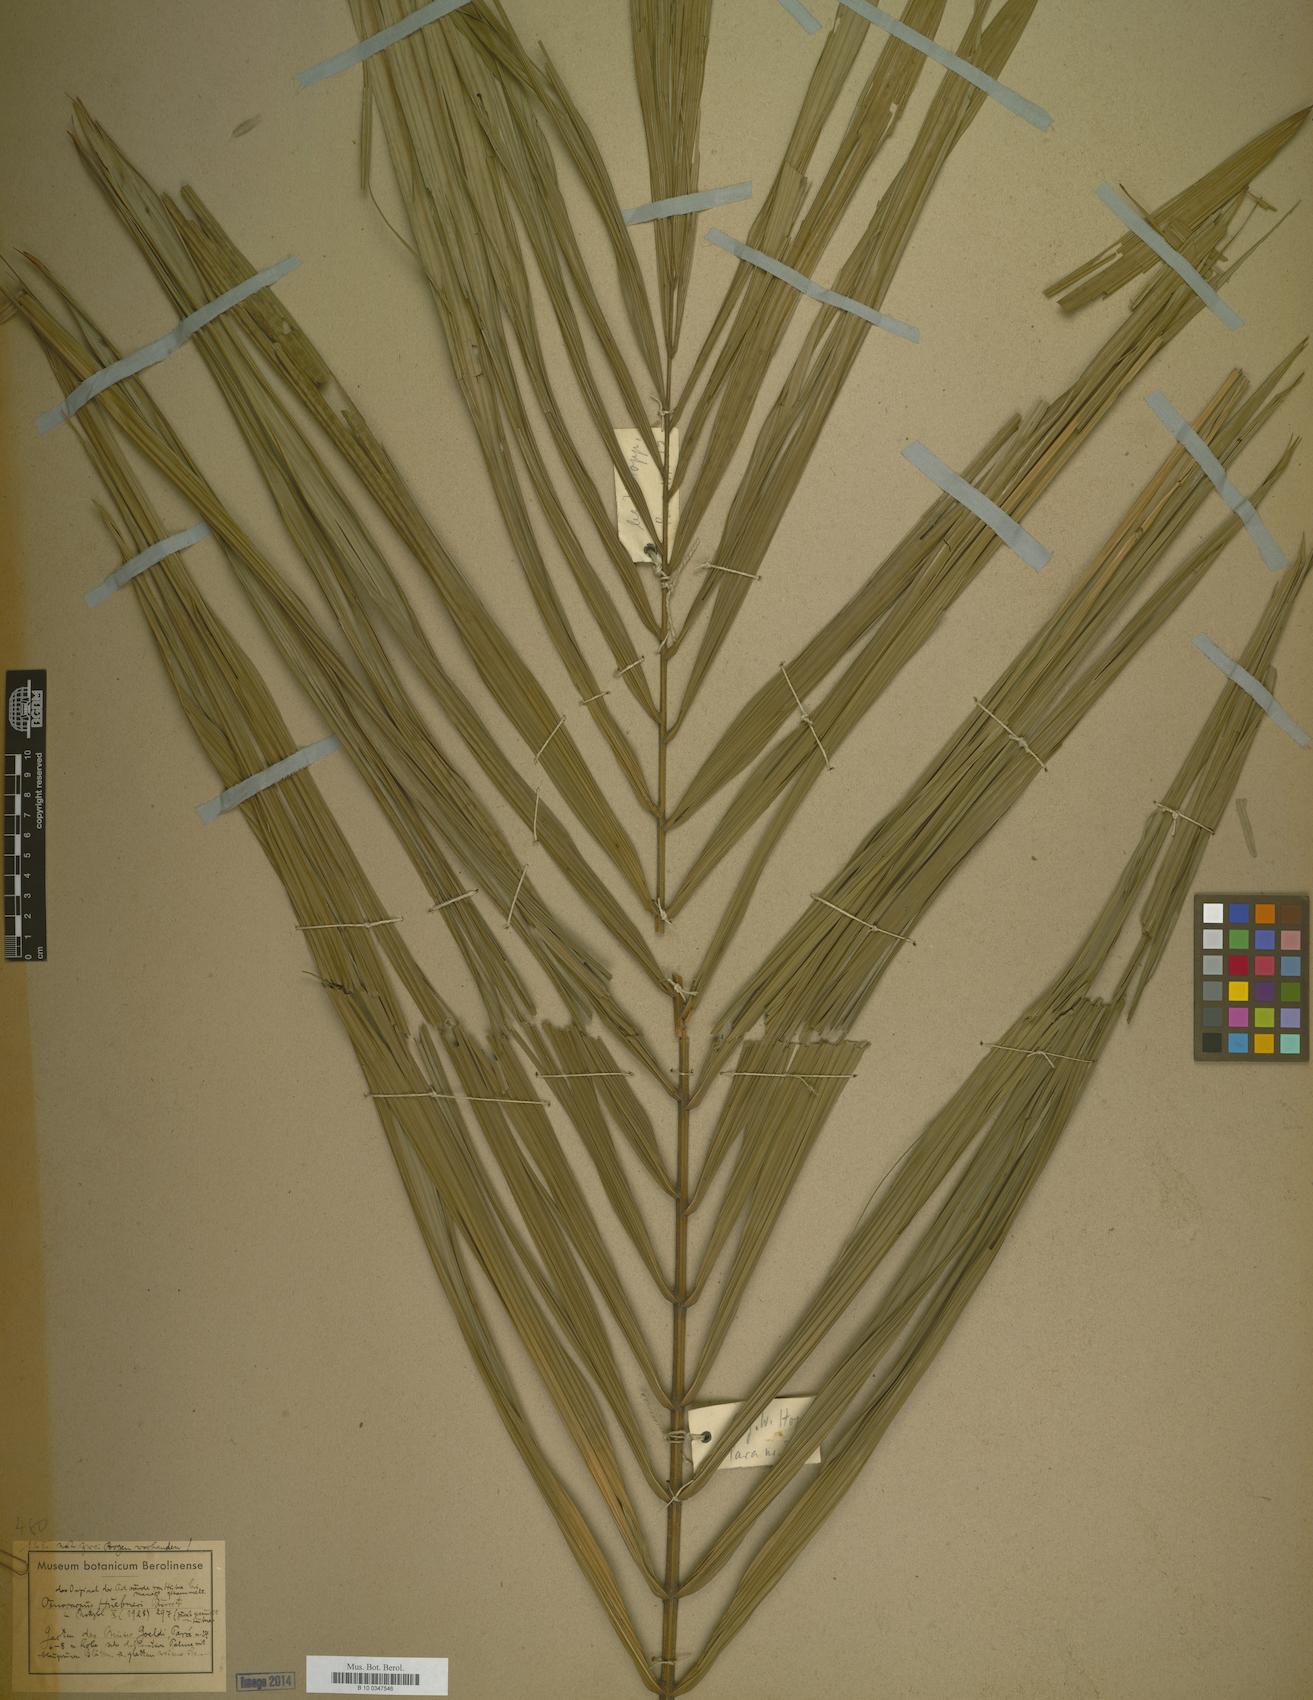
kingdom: Plantae
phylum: Tracheophyta
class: Liliopsida
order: Arecales
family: Arecaceae
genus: Oenocarpus
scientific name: Oenocarpus minor
